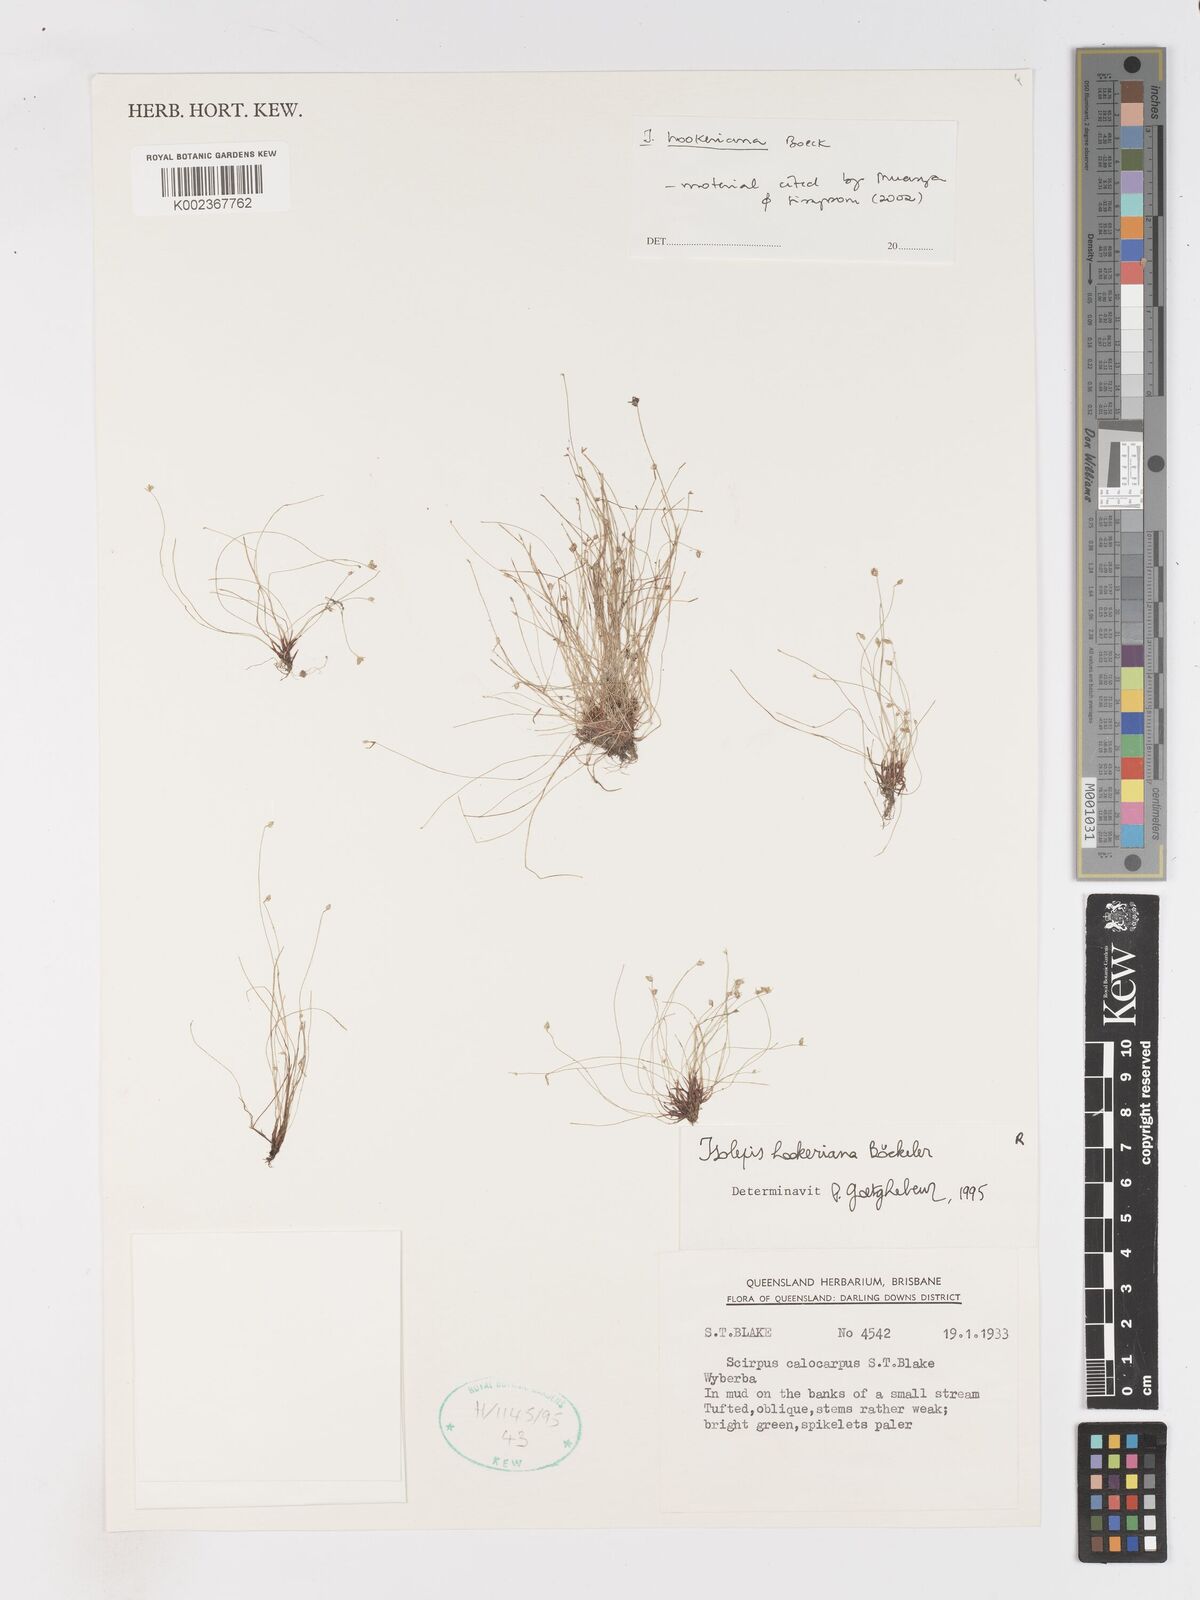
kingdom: Plantae
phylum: Tracheophyta
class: Liliopsida
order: Poales
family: Cyperaceae
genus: Isolepis
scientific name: Isolepis multicaulis
